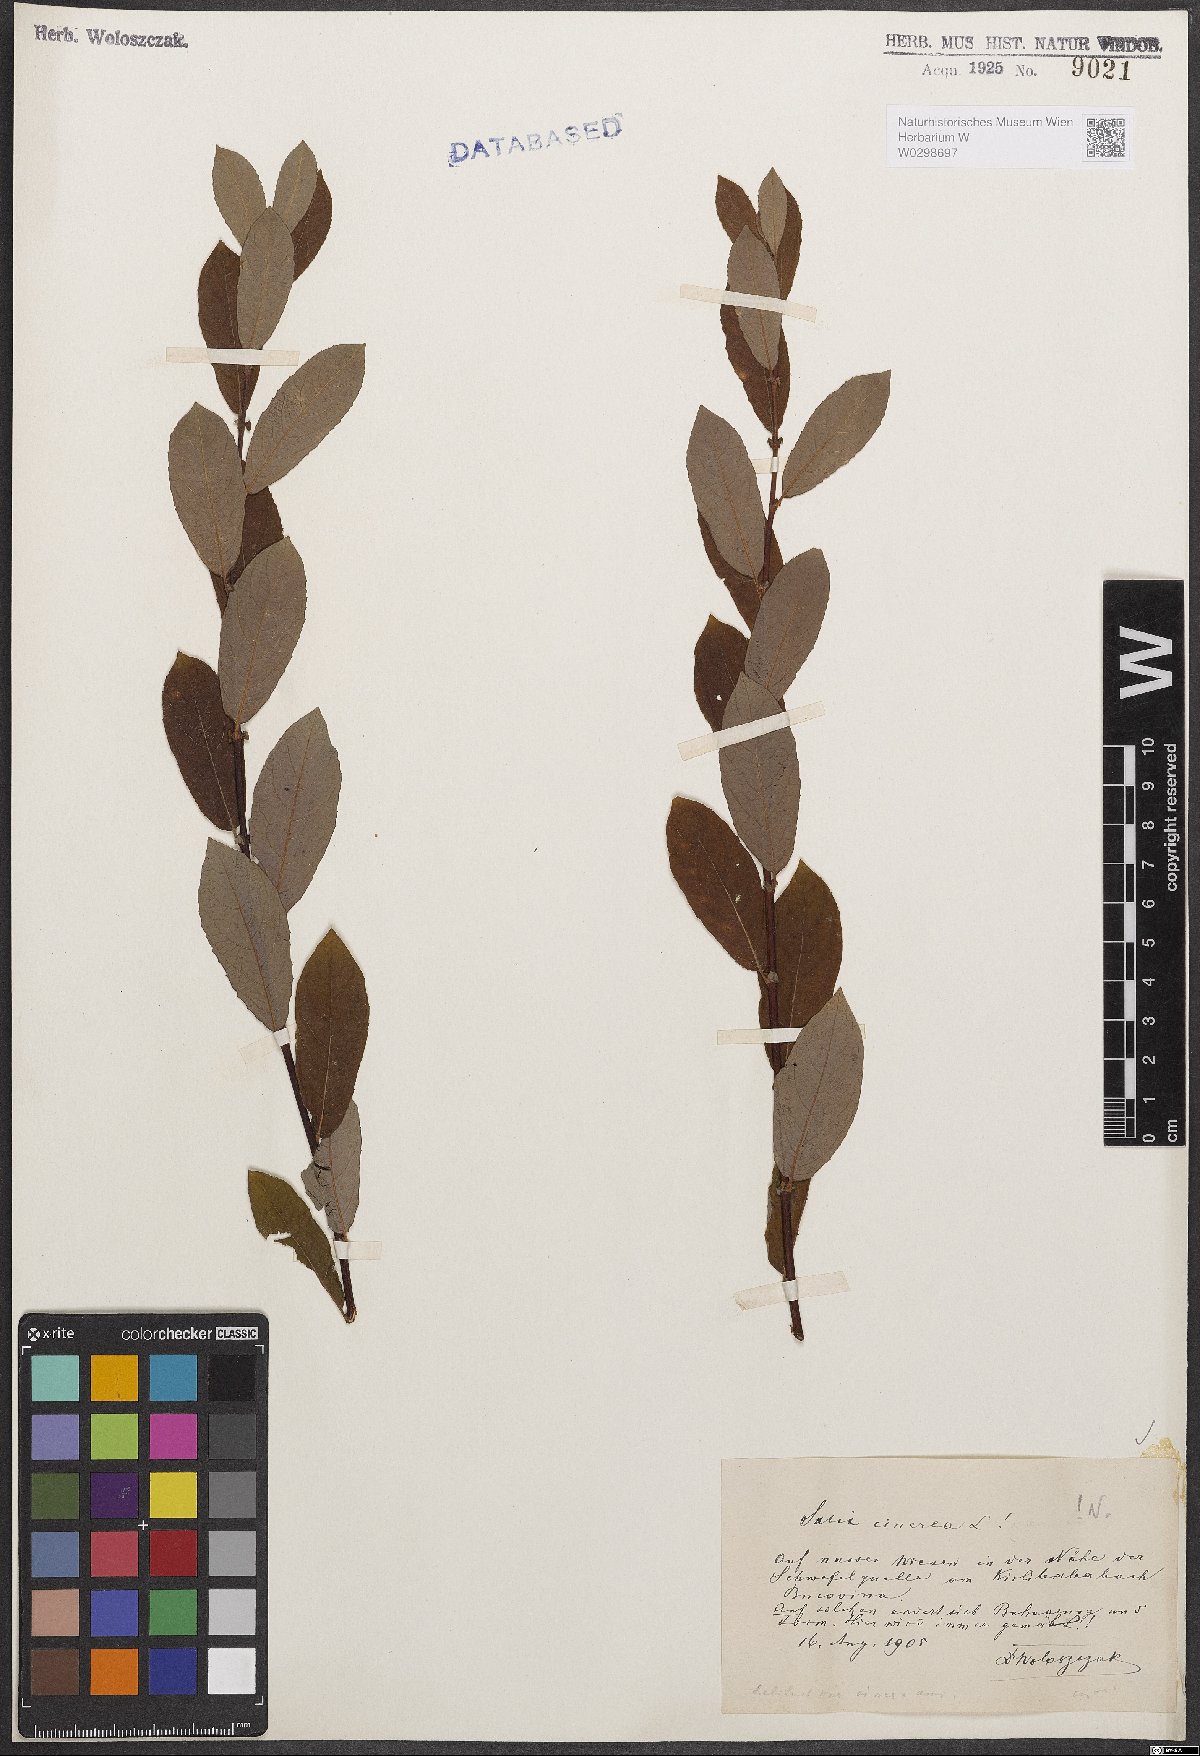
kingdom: Plantae
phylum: Tracheophyta
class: Magnoliopsida
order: Malpighiales
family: Salicaceae
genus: Salix
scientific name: Salix cinerea
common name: Common sallow
